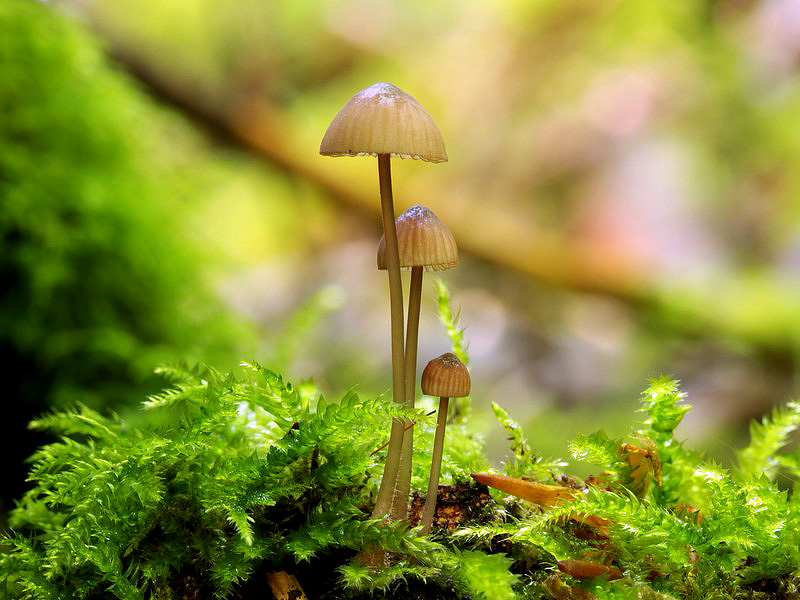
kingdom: Fungi
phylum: Basidiomycota
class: Agaricomycetes
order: Agaricales
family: Mycenaceae
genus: Mycena
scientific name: Mycena sanguinolenta
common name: rødmælket huesvamp
